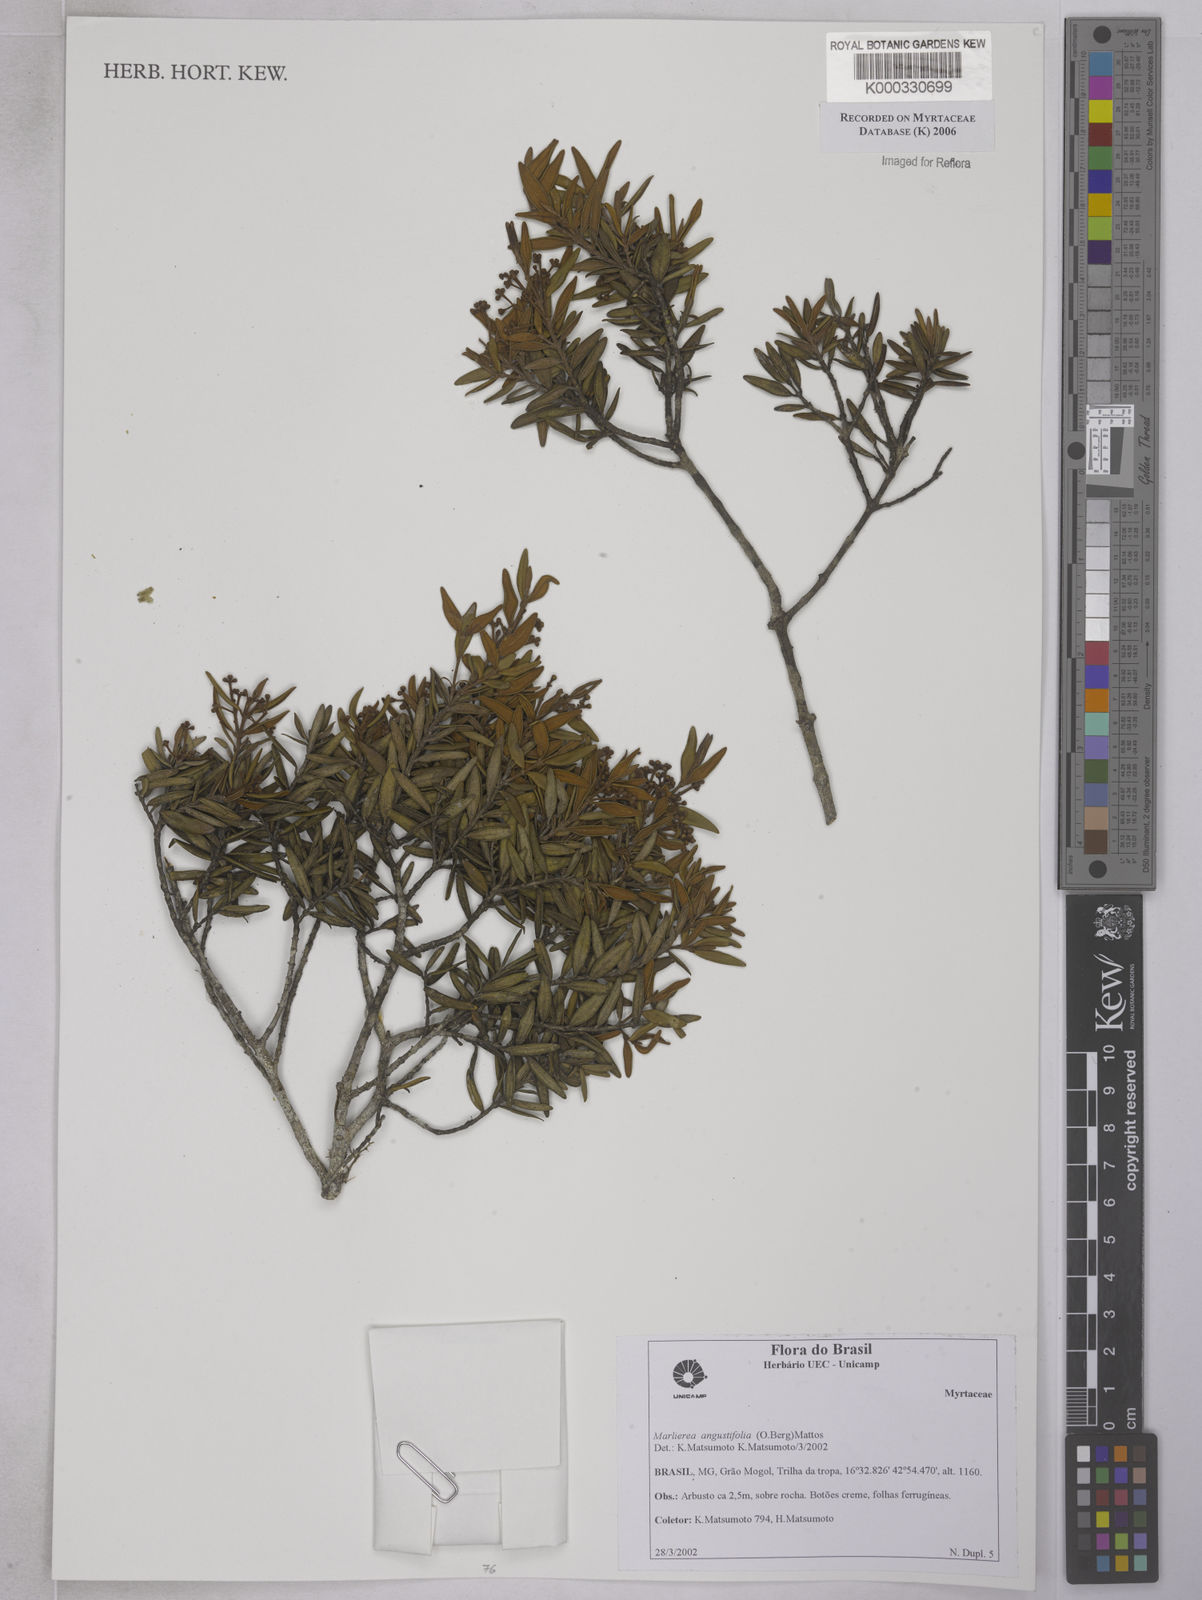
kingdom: Plantae
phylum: Tracheophyta
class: Magnoliopsida
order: Myrtales
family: Myrtaceae
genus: Myrcia
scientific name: Myrcia lenheirensis
